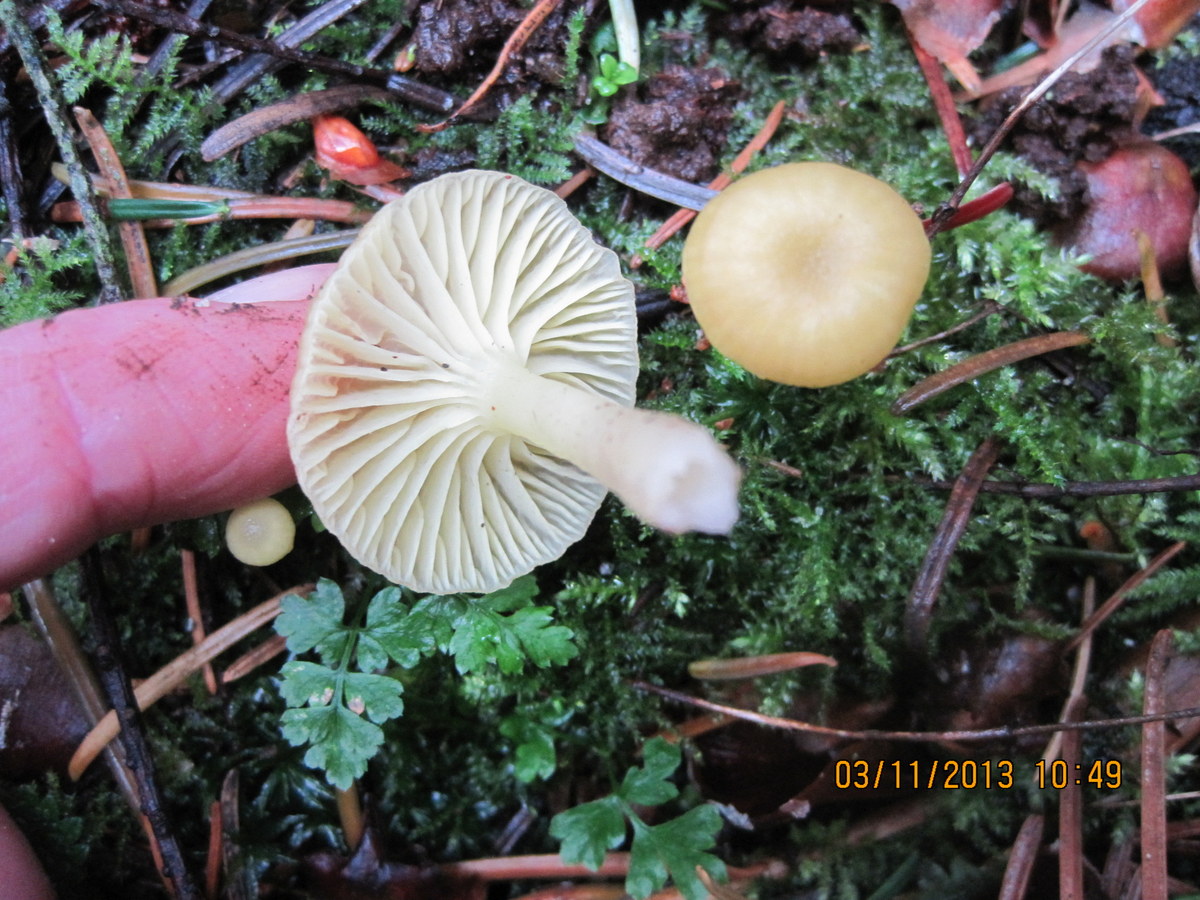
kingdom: Fungi
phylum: Basidiomycota
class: Agaricomycetes
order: Agaricales
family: Hygrophoraceae
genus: Chrysomphalina
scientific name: Chrysomphalina grossula
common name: stød-gyldenblad
